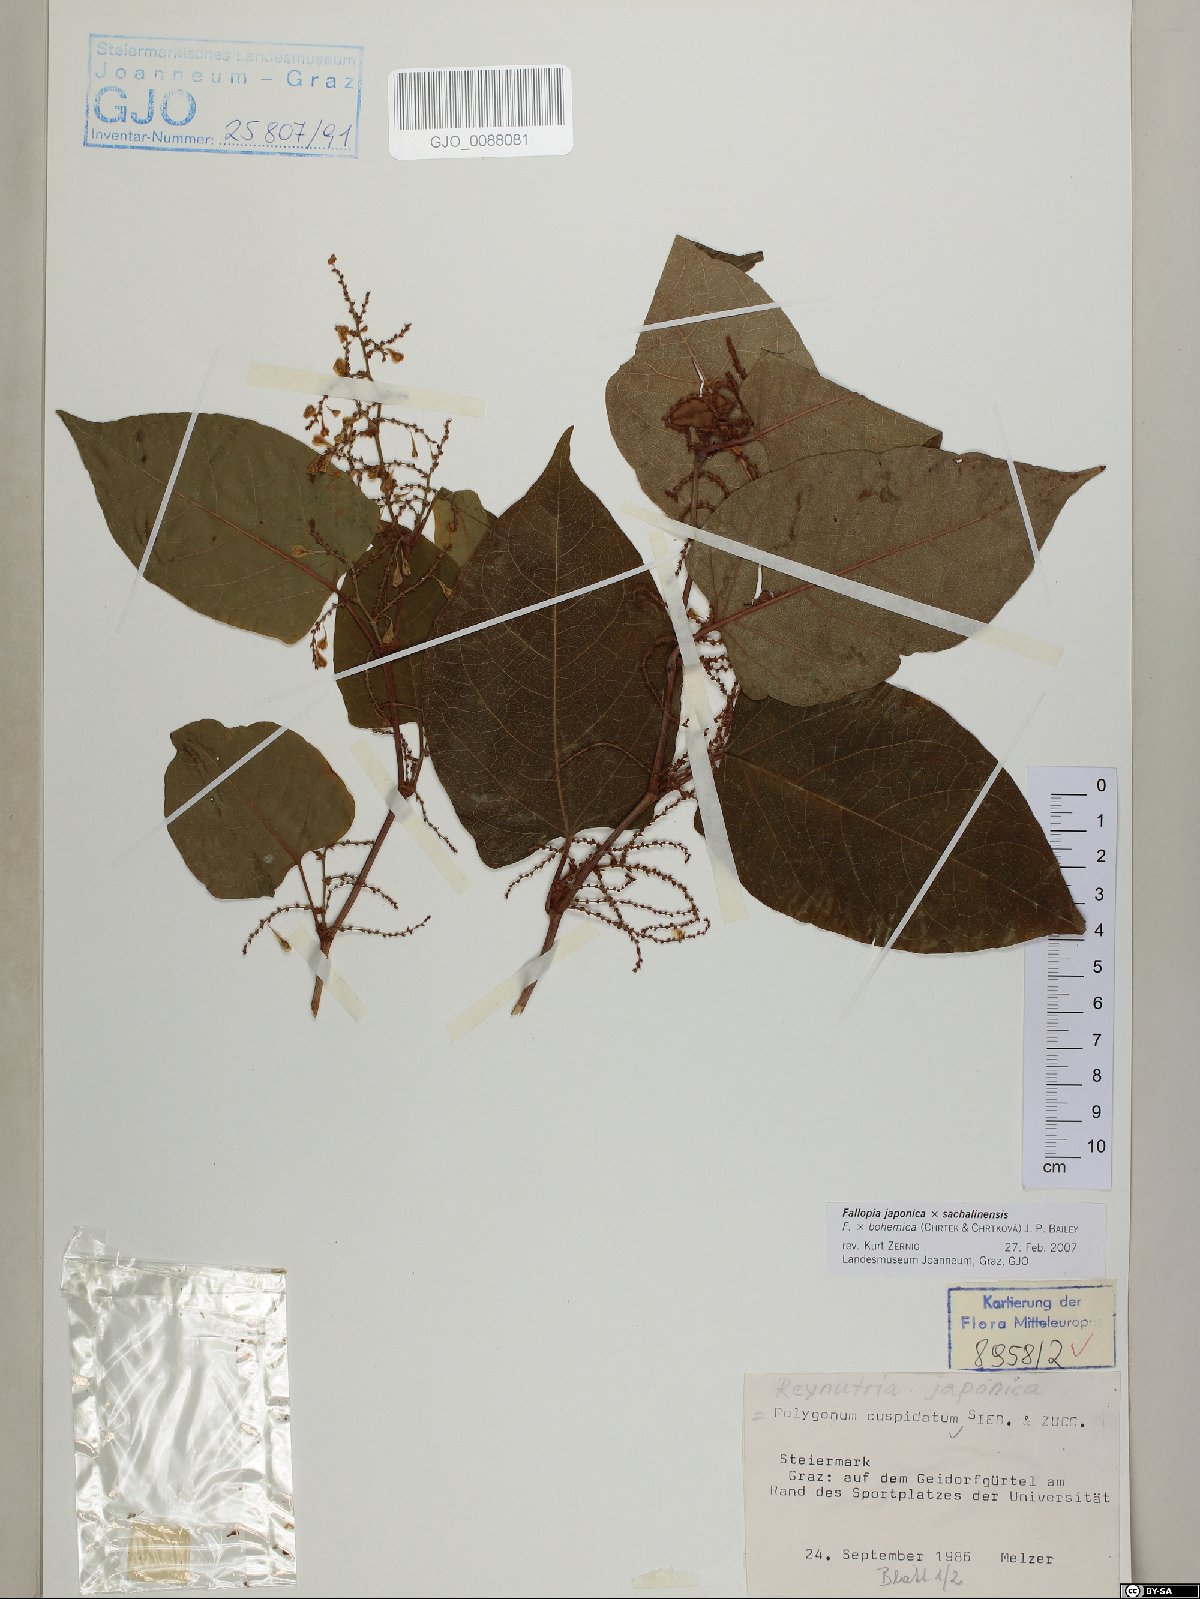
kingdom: Plantae
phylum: Tracheophyta
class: Magnoliopsida
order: Caryophyllales
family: Polygonaceae
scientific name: Polygonaceae
